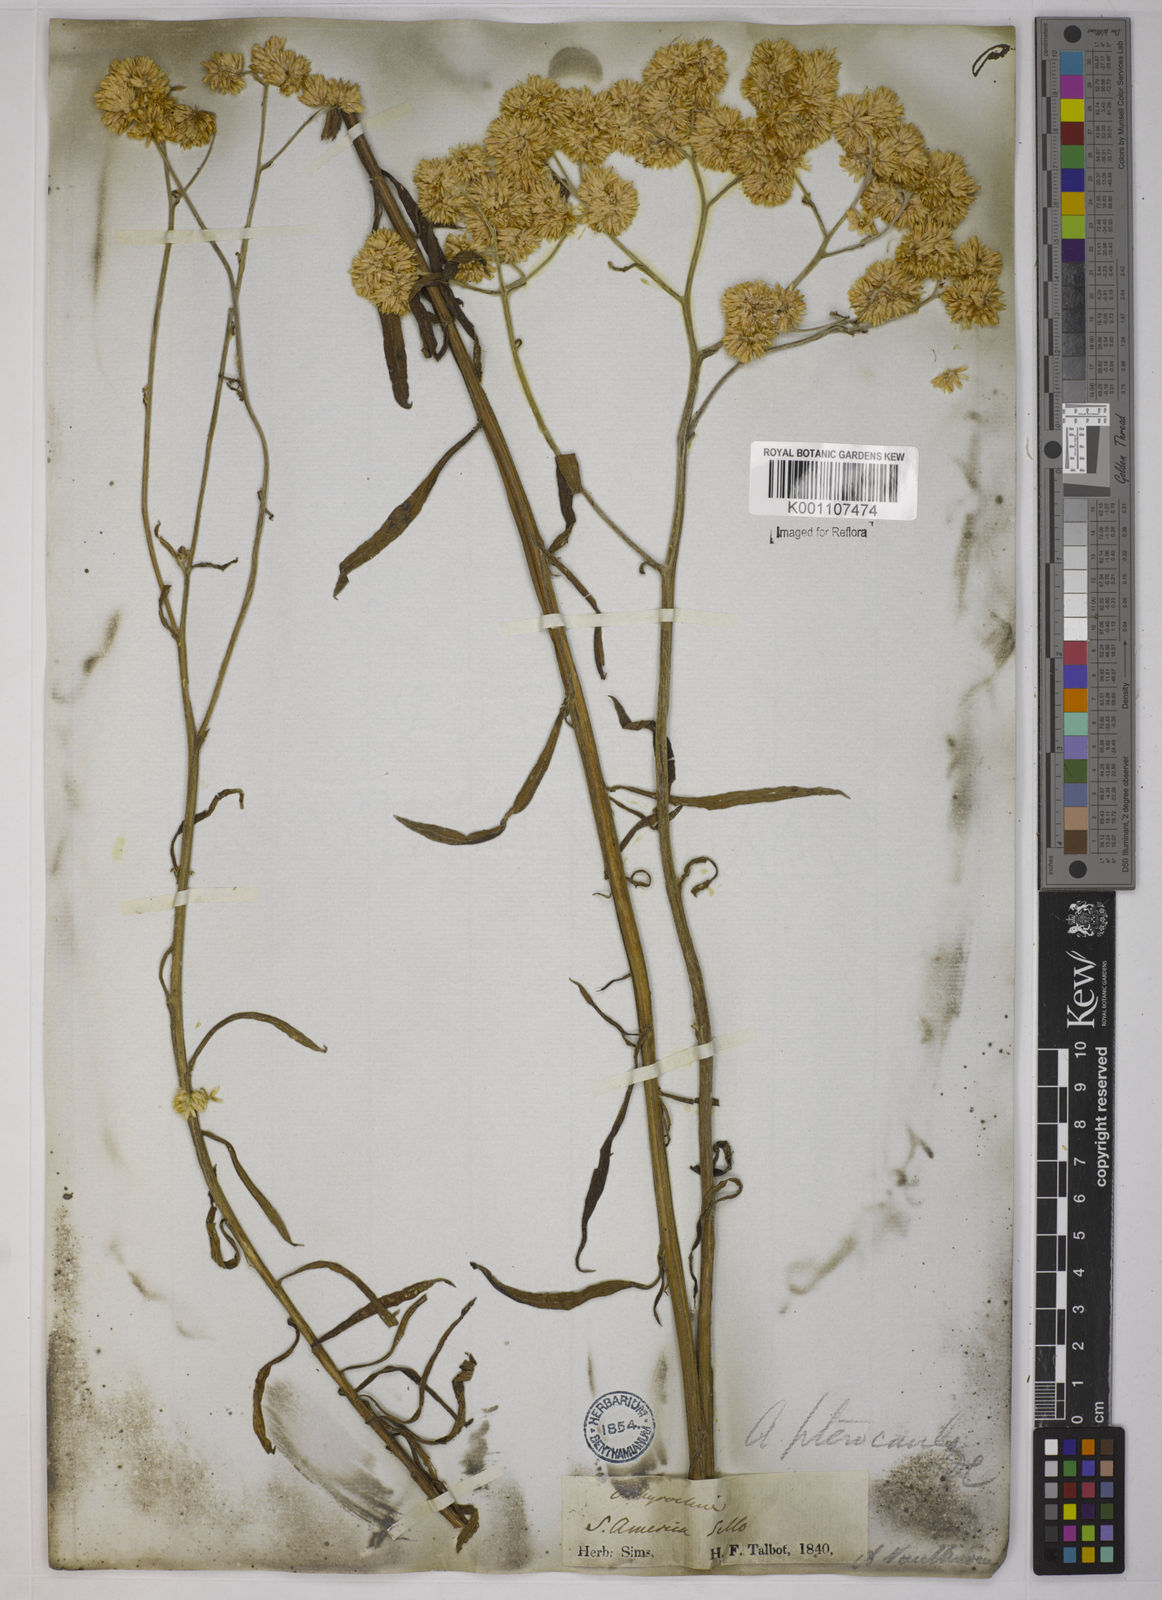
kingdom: Plantae
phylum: Tracheophyta
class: Magnoliopsida
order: Asterales
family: Asteraceae
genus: Achyrocline
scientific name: Achyrocline alata
